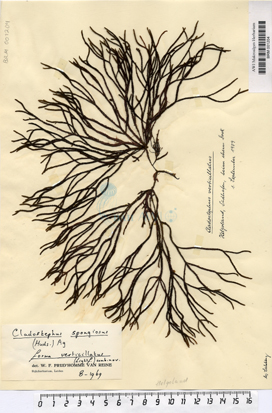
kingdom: Chromista
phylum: Ochrophyta
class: Phaeophyceae
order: Sphacelariales
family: Cladostephaceae
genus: Cladostephus
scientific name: Cladostephus spongiosus
